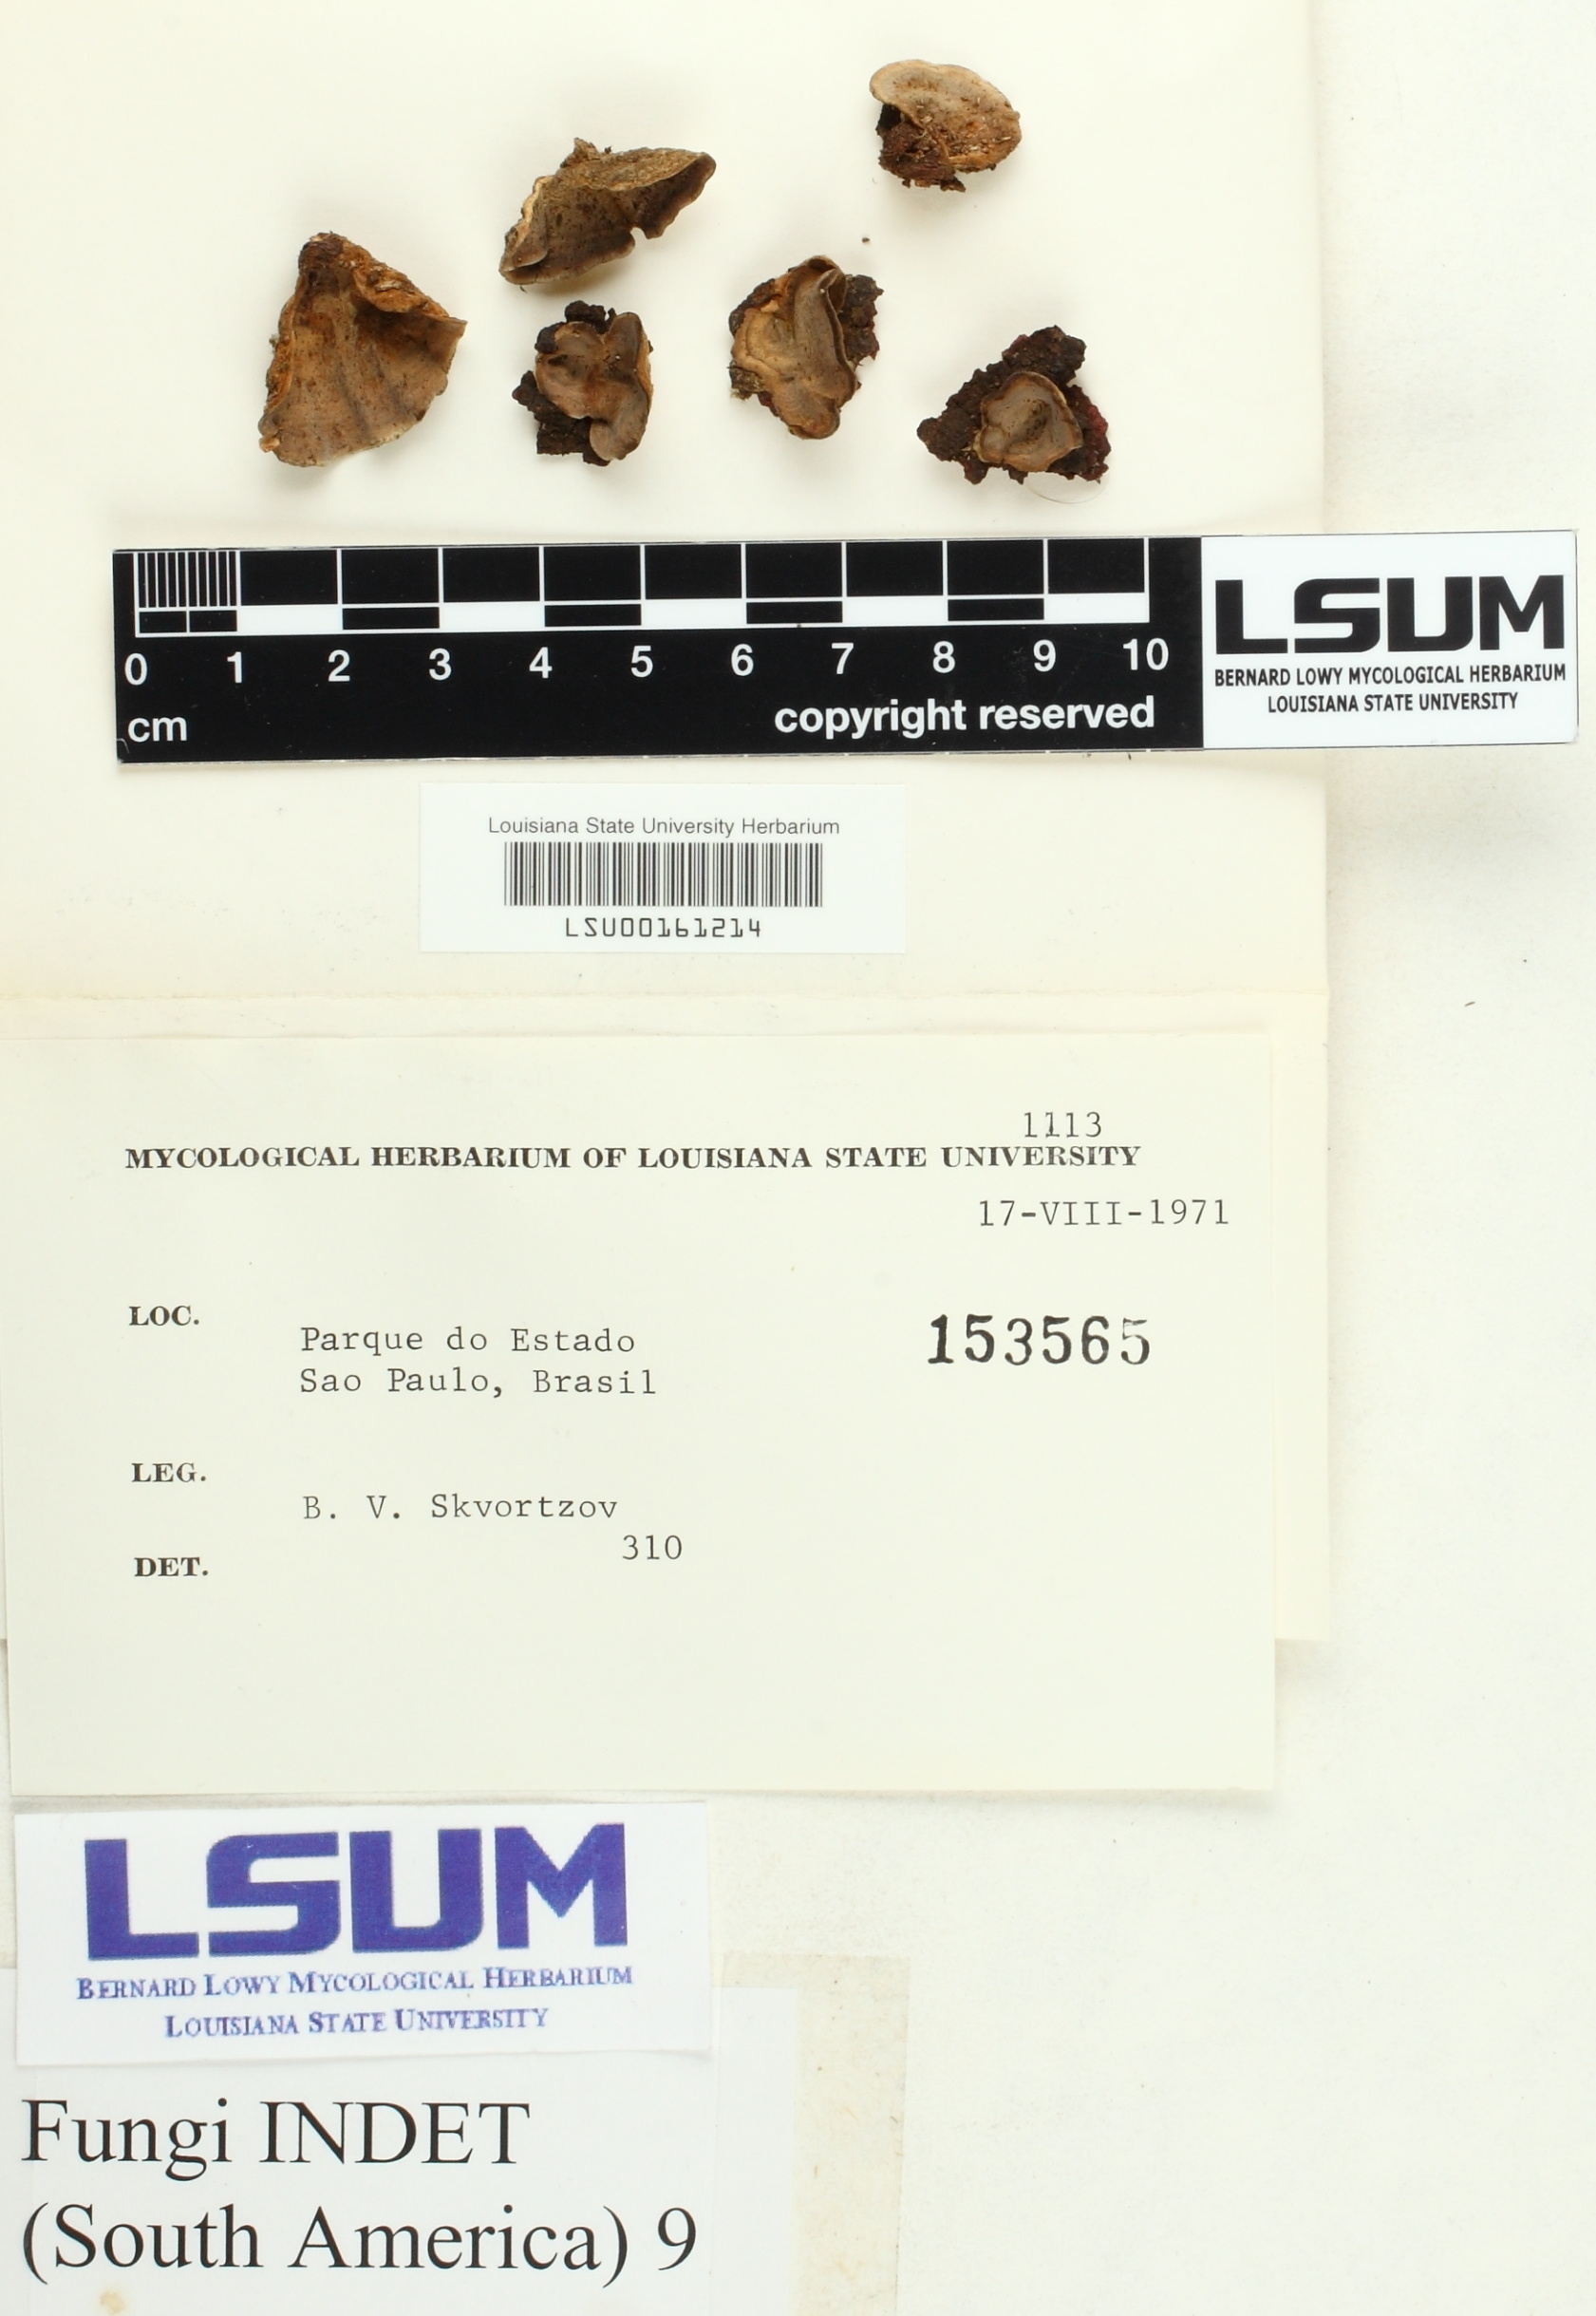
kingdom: Fungi
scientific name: Fungi
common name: Fungi
